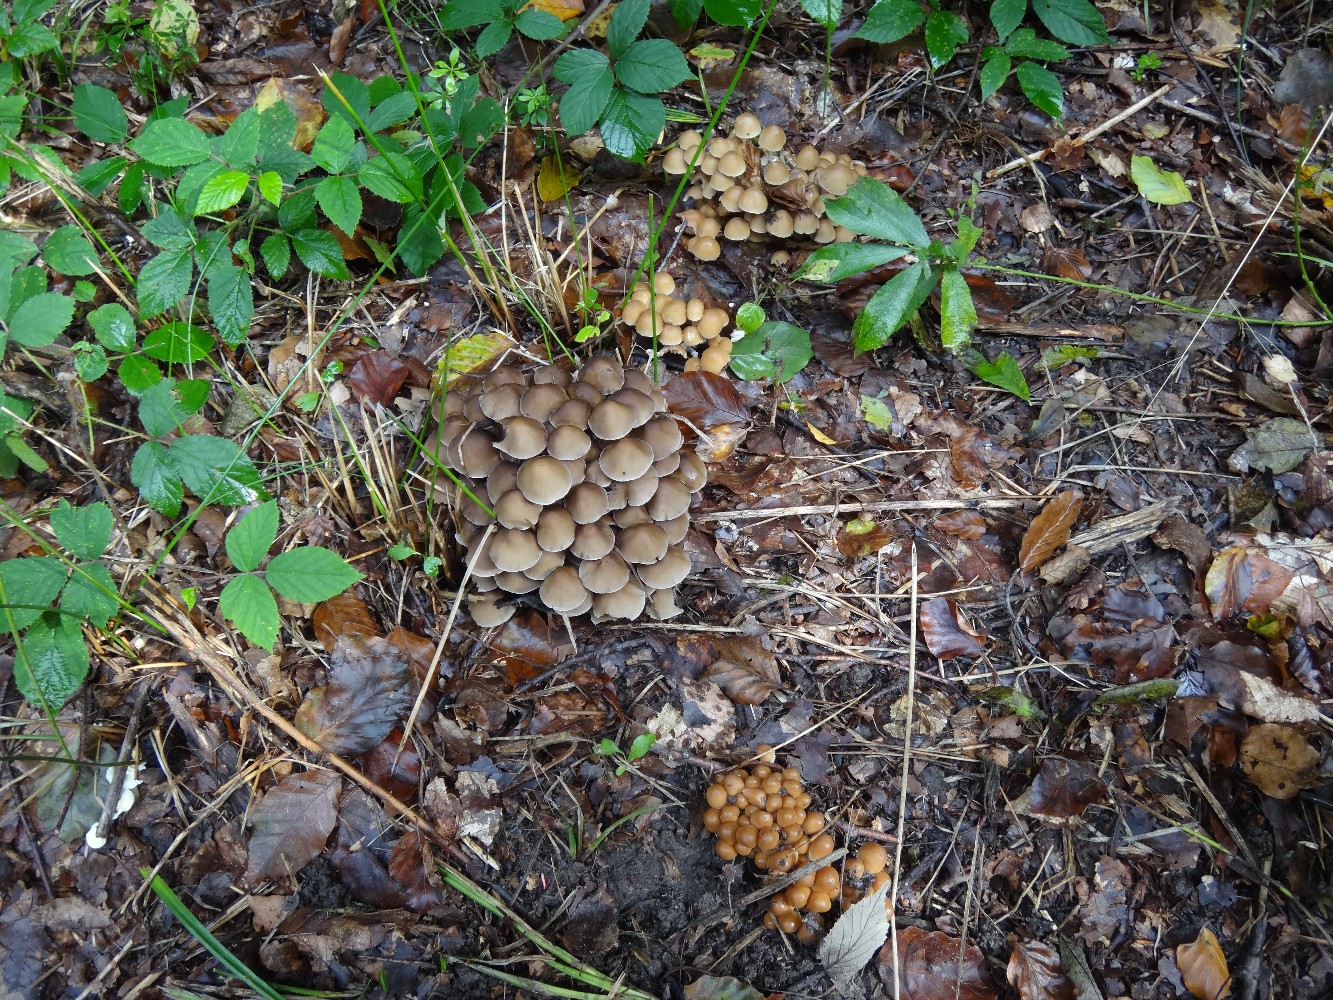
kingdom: Fungi
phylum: Basidiomycota
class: Agaricomycetes
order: Agaricales
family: Psathyrellaceae
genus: Britzelmayria
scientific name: Britzelmayria multipedata
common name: knippe-mørkhat
